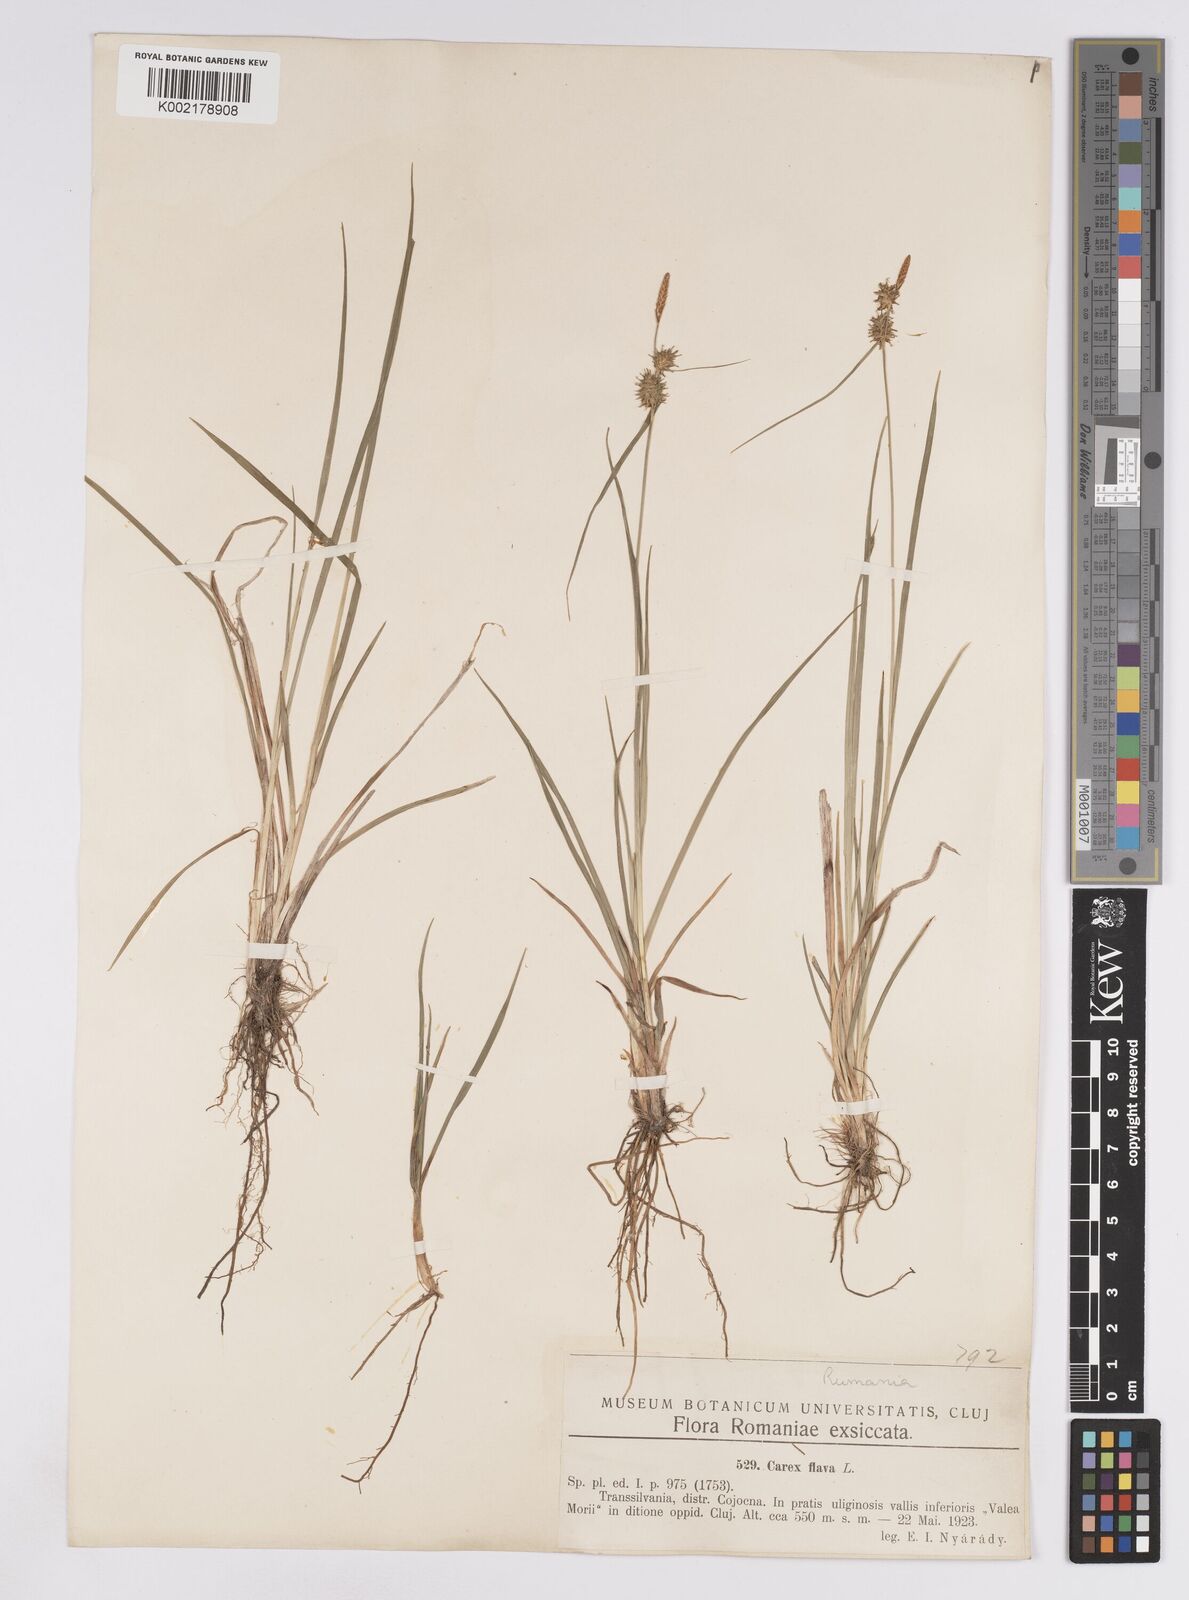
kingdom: Plantae
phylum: Tracheophyta
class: Liliopsida
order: Poales
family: Cyperaceae
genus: Carex
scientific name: Carex lepidocarpa
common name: Long-stalked yellow-sedge
